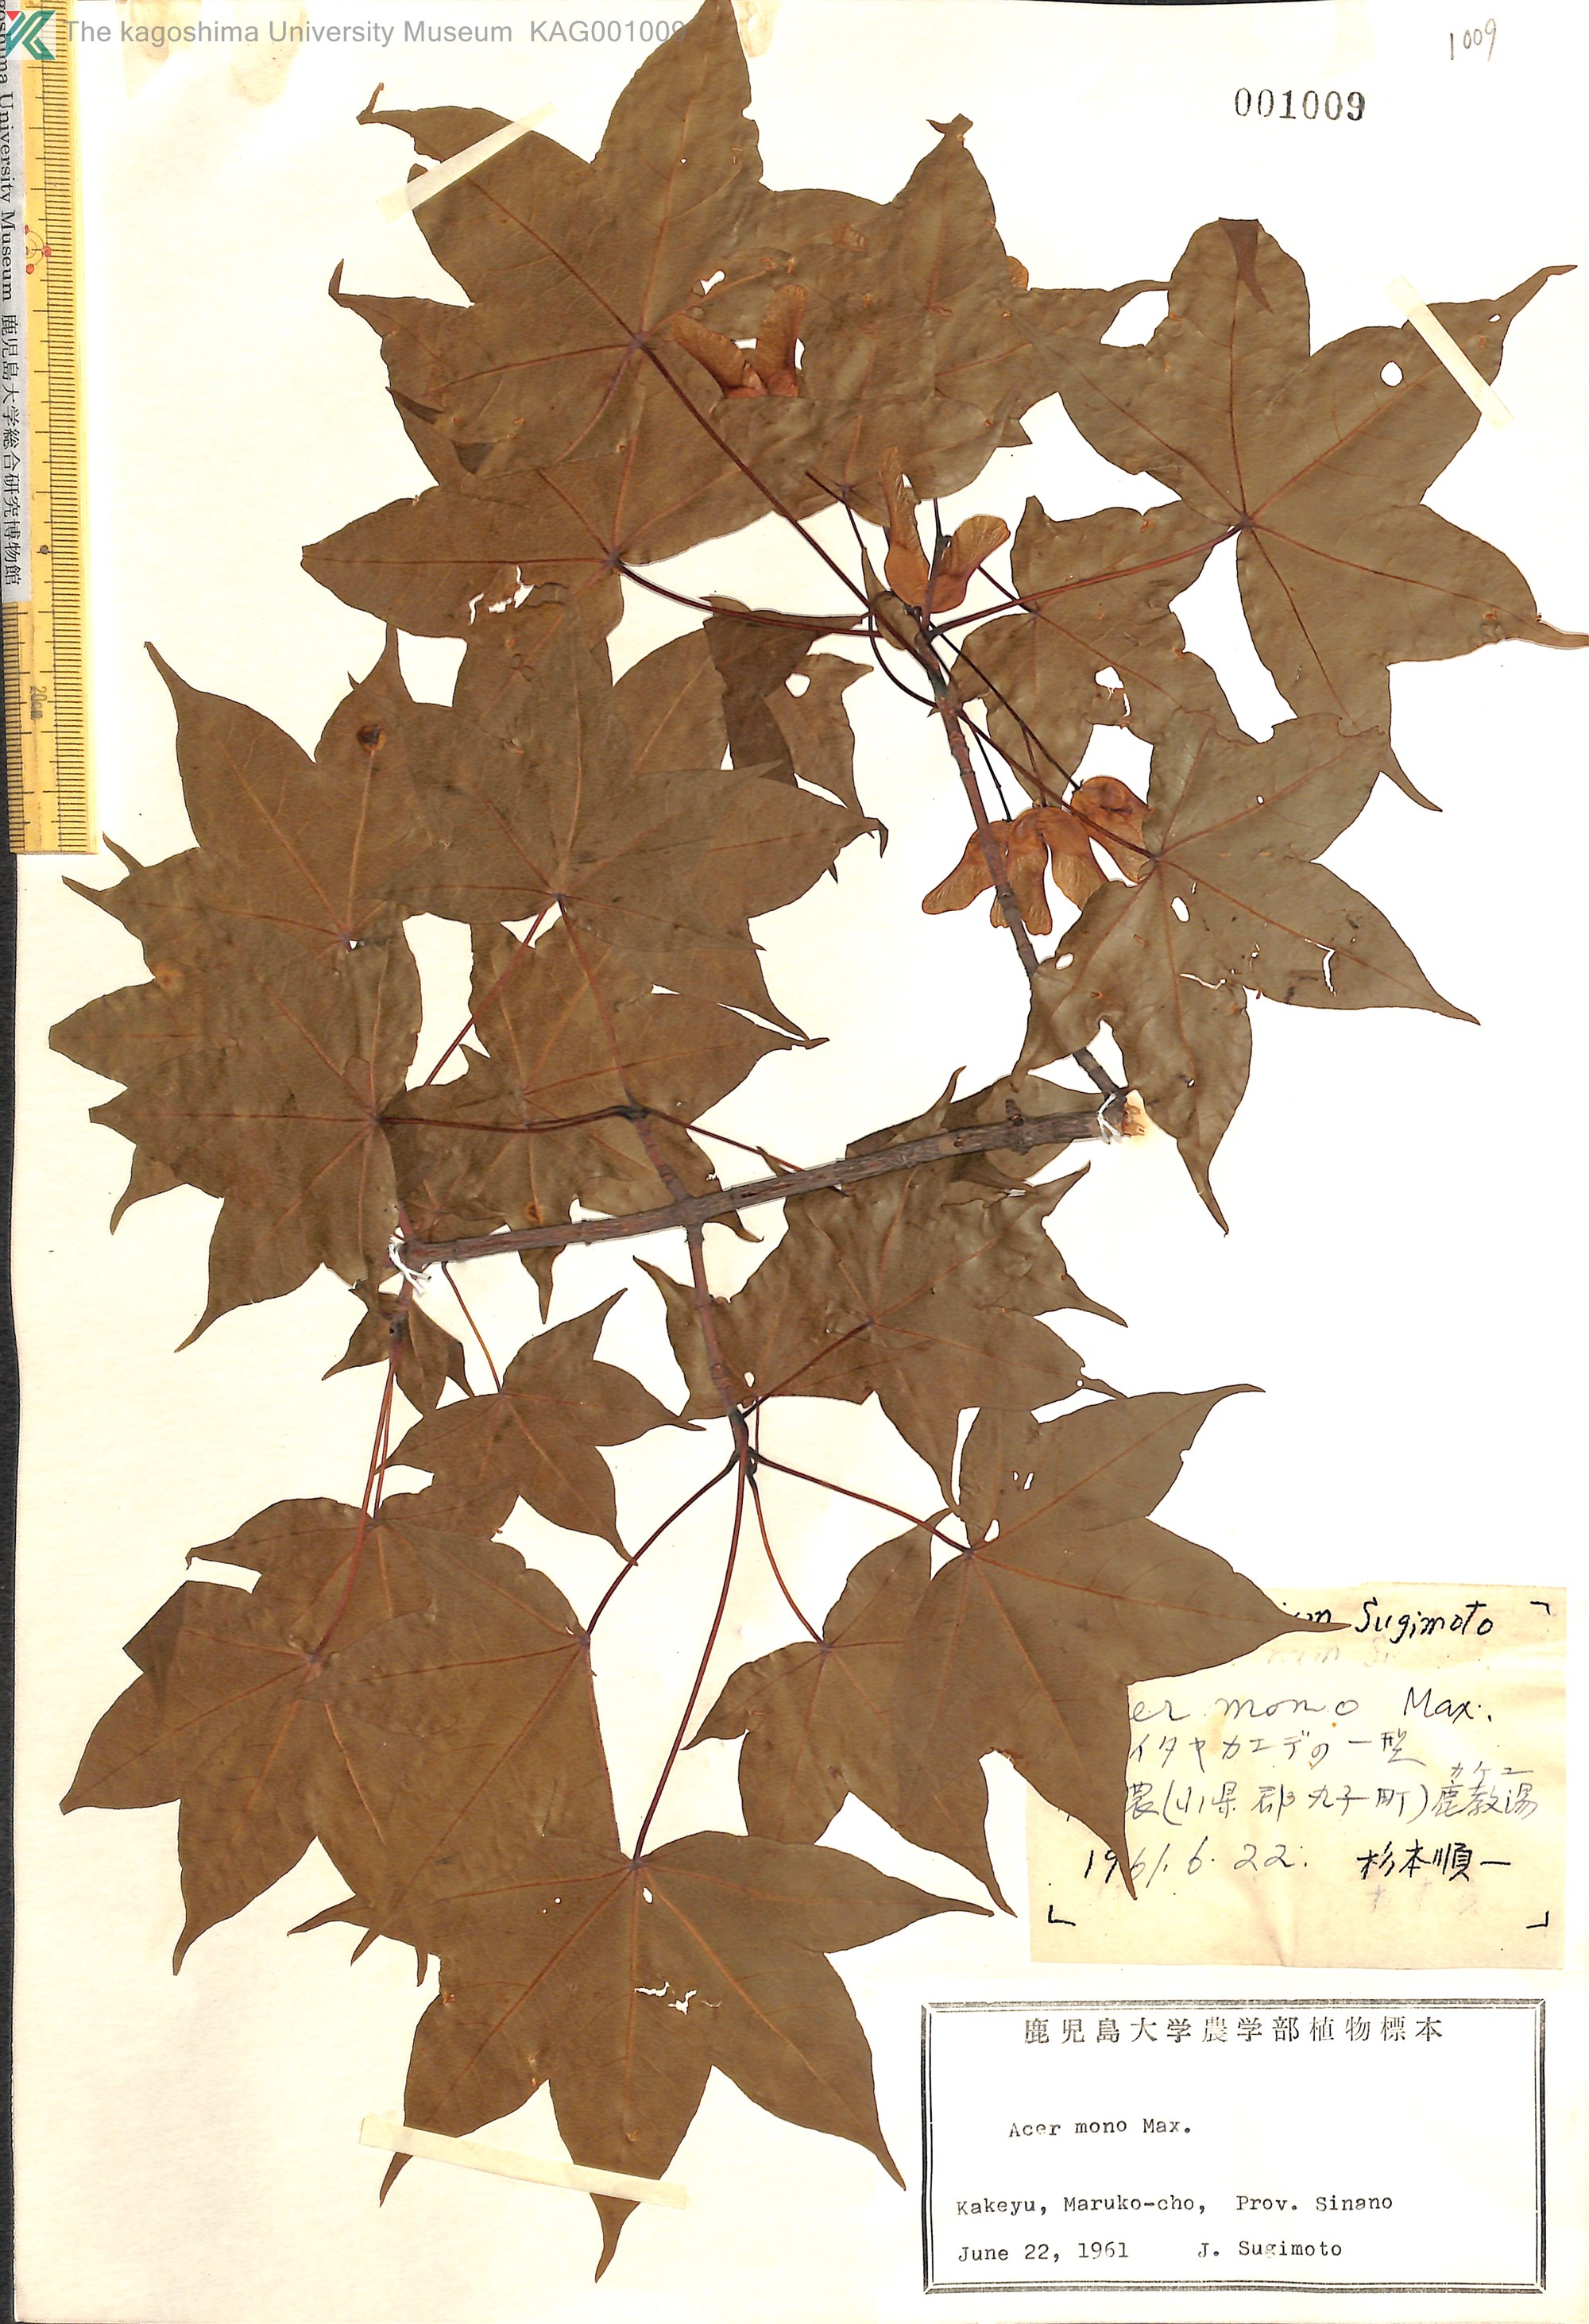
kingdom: Plantae
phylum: Tracheophyta
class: Magnoliopsida
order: Sapindales
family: Sapindaceae
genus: Acer
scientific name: Acer pictum
